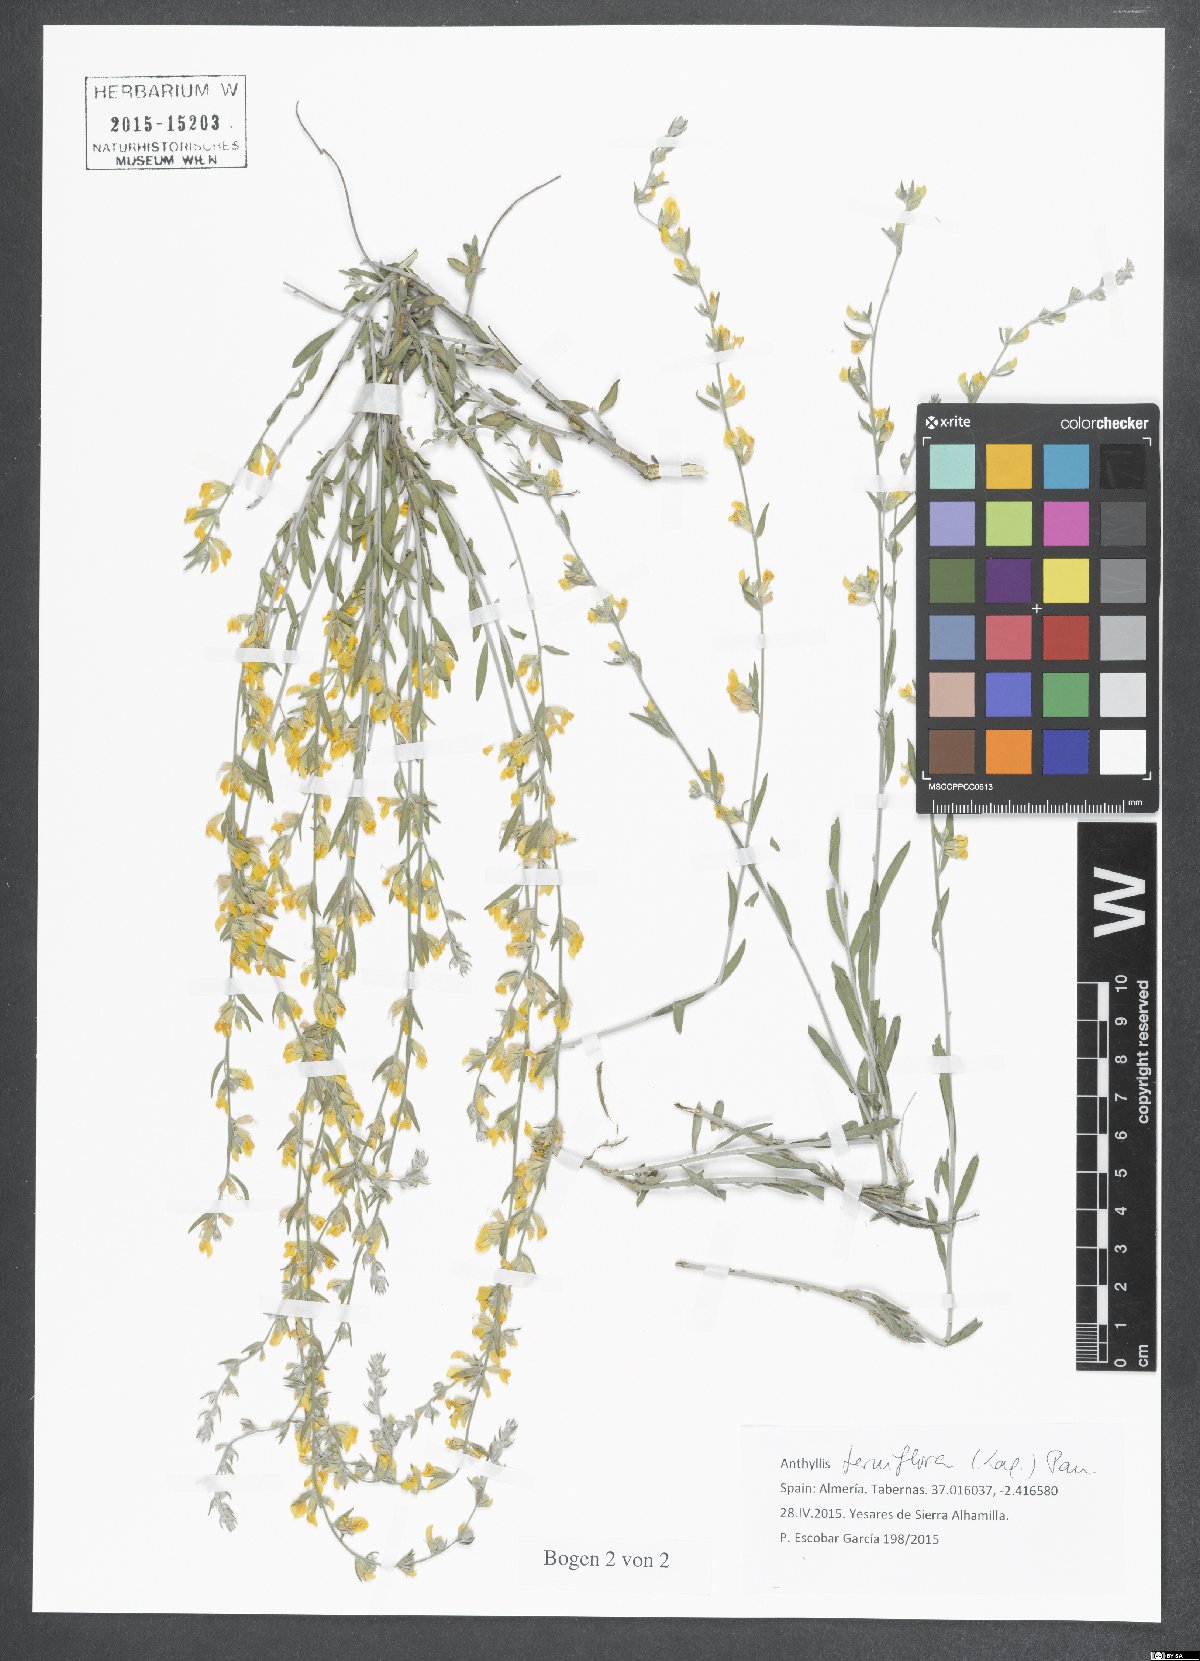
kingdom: Plantae
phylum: Tracheophyta
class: Magnoliopsida
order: Fabales
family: Fabaceae
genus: Anthyllis
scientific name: Anthyllis terniflora
